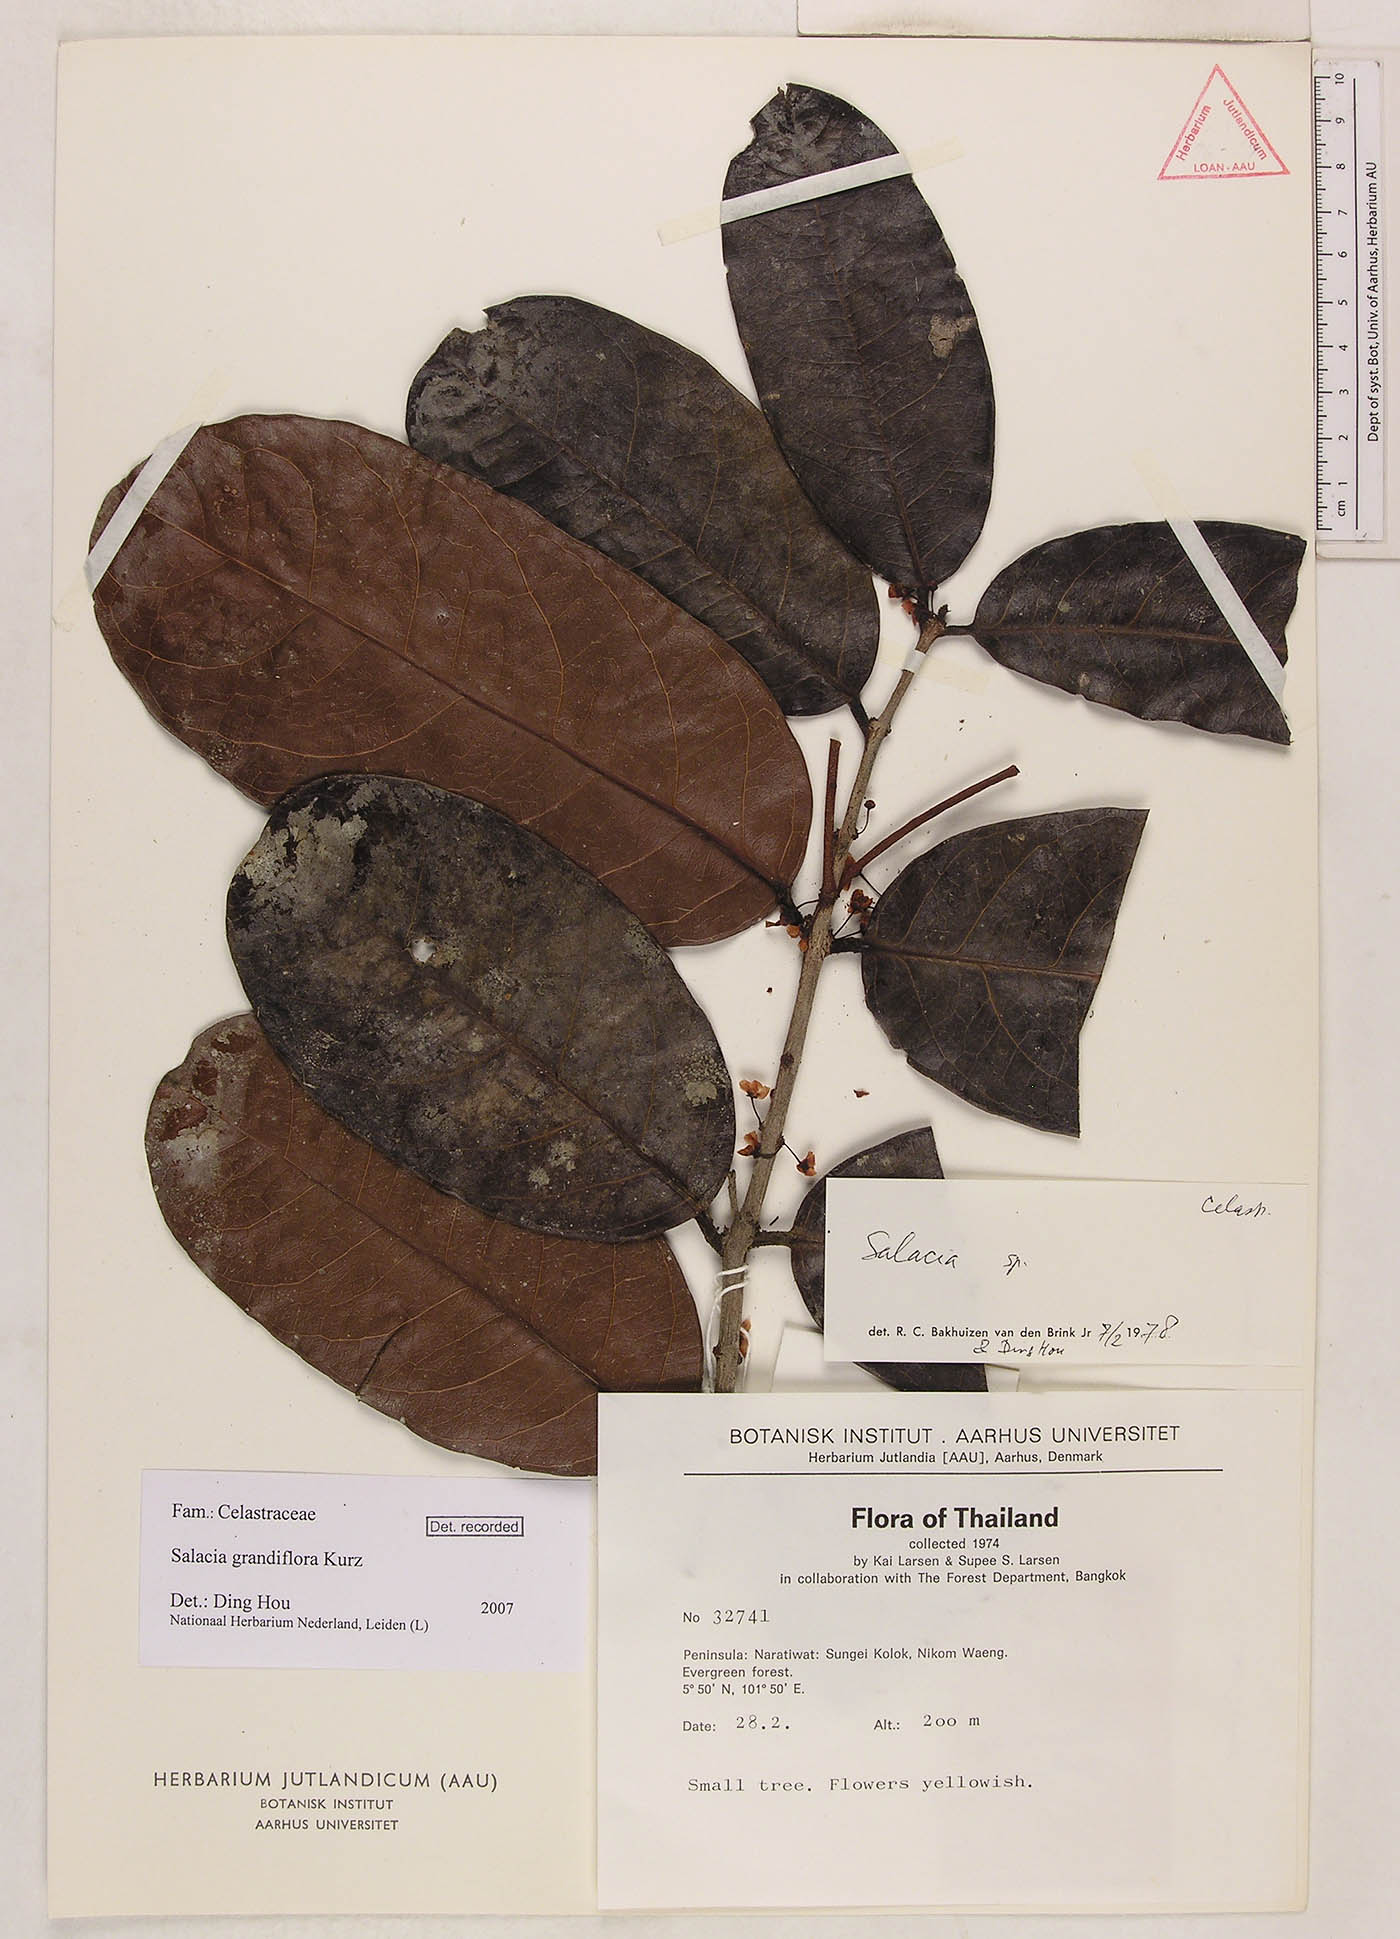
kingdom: Plantae
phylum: Tracheophyta
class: Magnoliopsida
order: Celastrales
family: Celastraceae
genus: Salacia
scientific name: Salacia grandiflora
